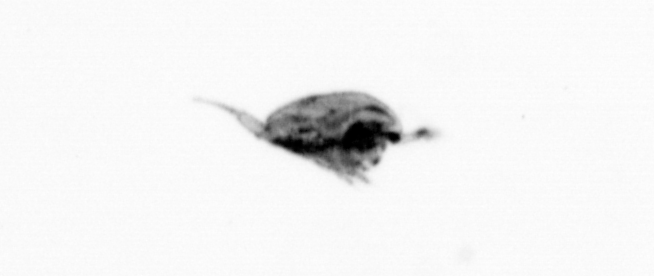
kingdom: Animalia
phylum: Arthropoda
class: Maxillopoda
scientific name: Maxillopoda
